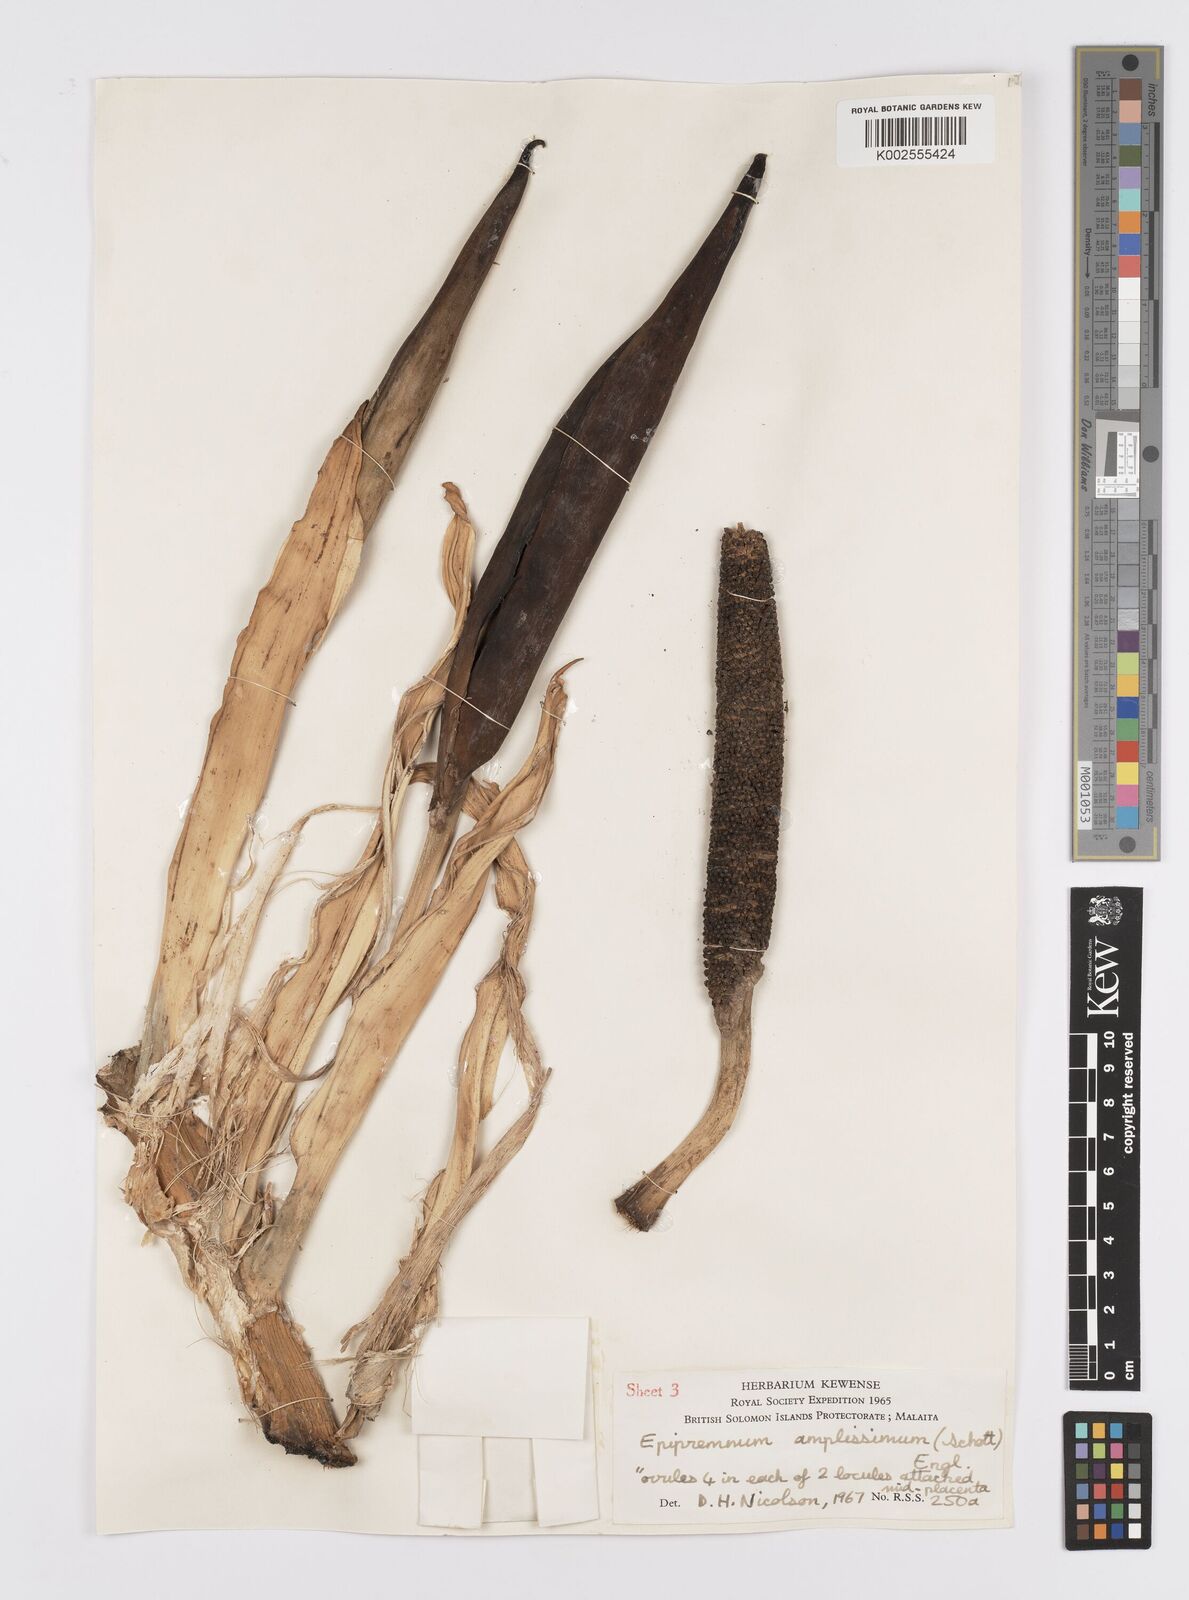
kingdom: Plantae
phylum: Tracheophyta
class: Liliopsida
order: Alismatales
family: Araceae
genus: Epipremnum
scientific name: Epipremnum amplissimum
